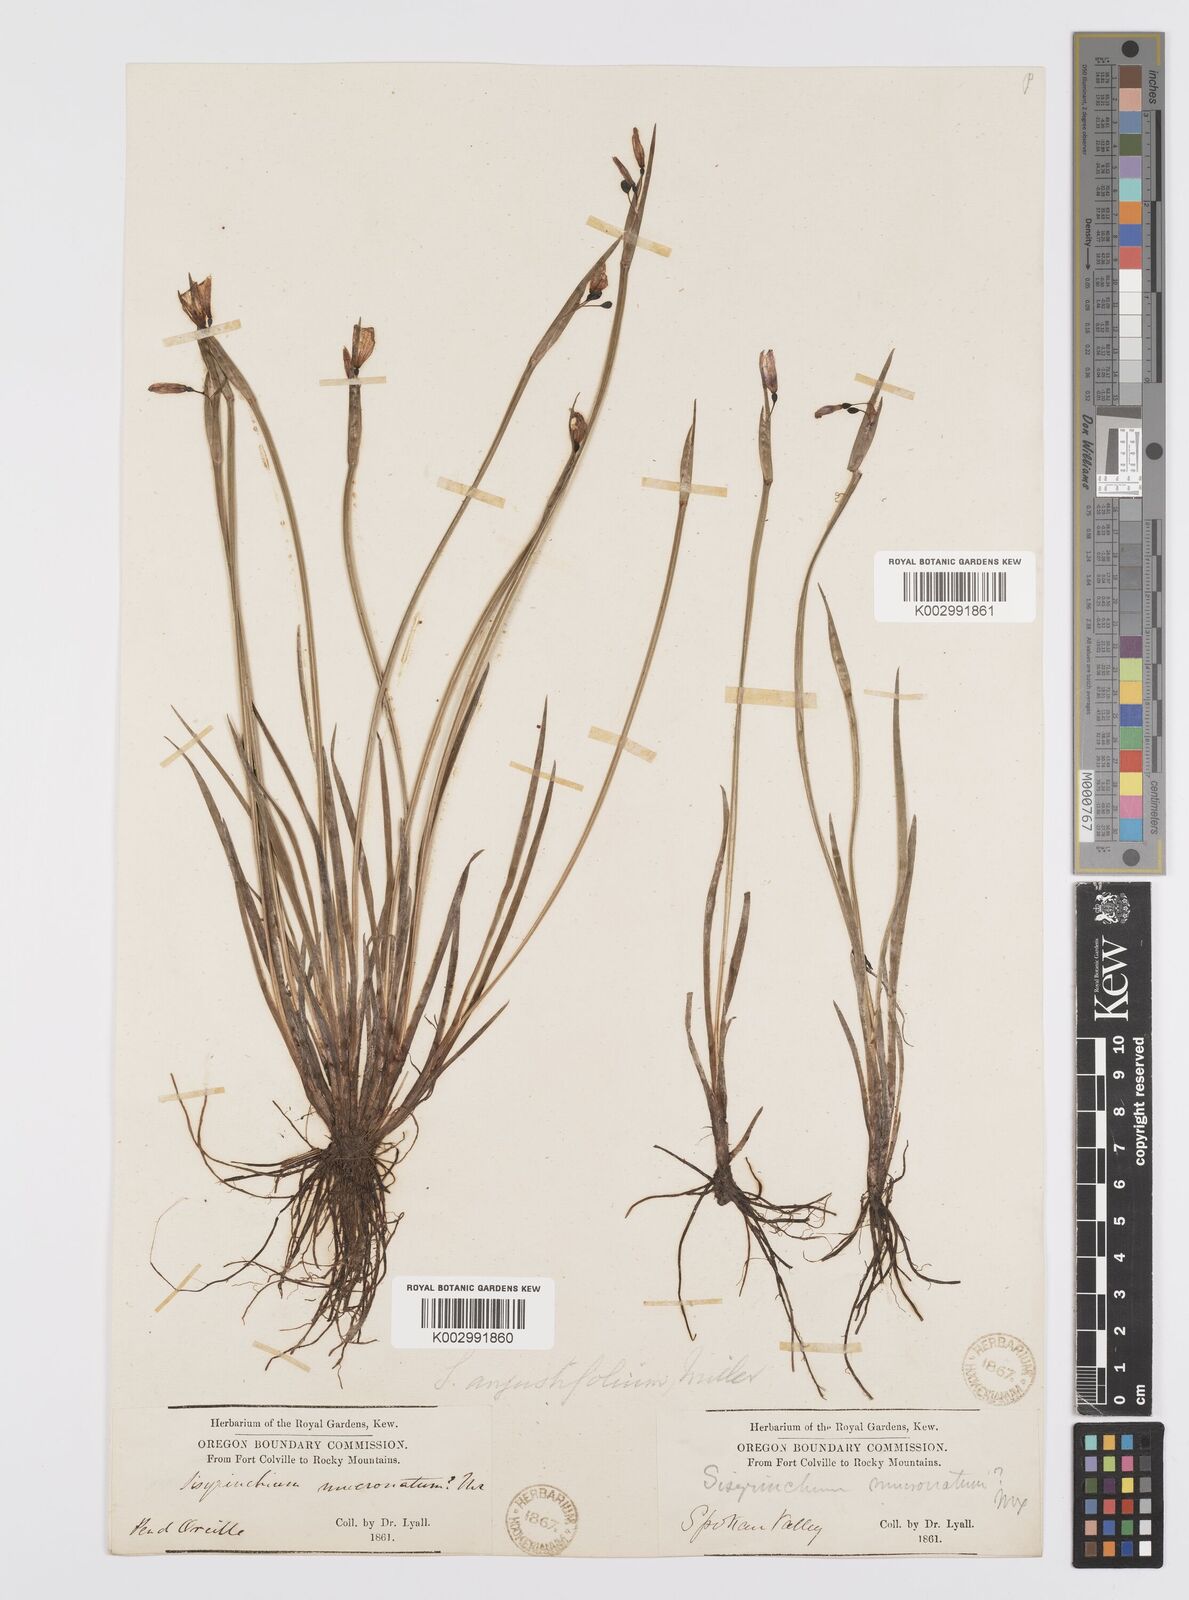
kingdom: Plantae
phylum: Tracheophyta
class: Liliopsida
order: Asparagales
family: Iridaceae
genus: Sisyrinchium
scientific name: Sisyrinchium bermudiana
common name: Blue-eyed-grass
